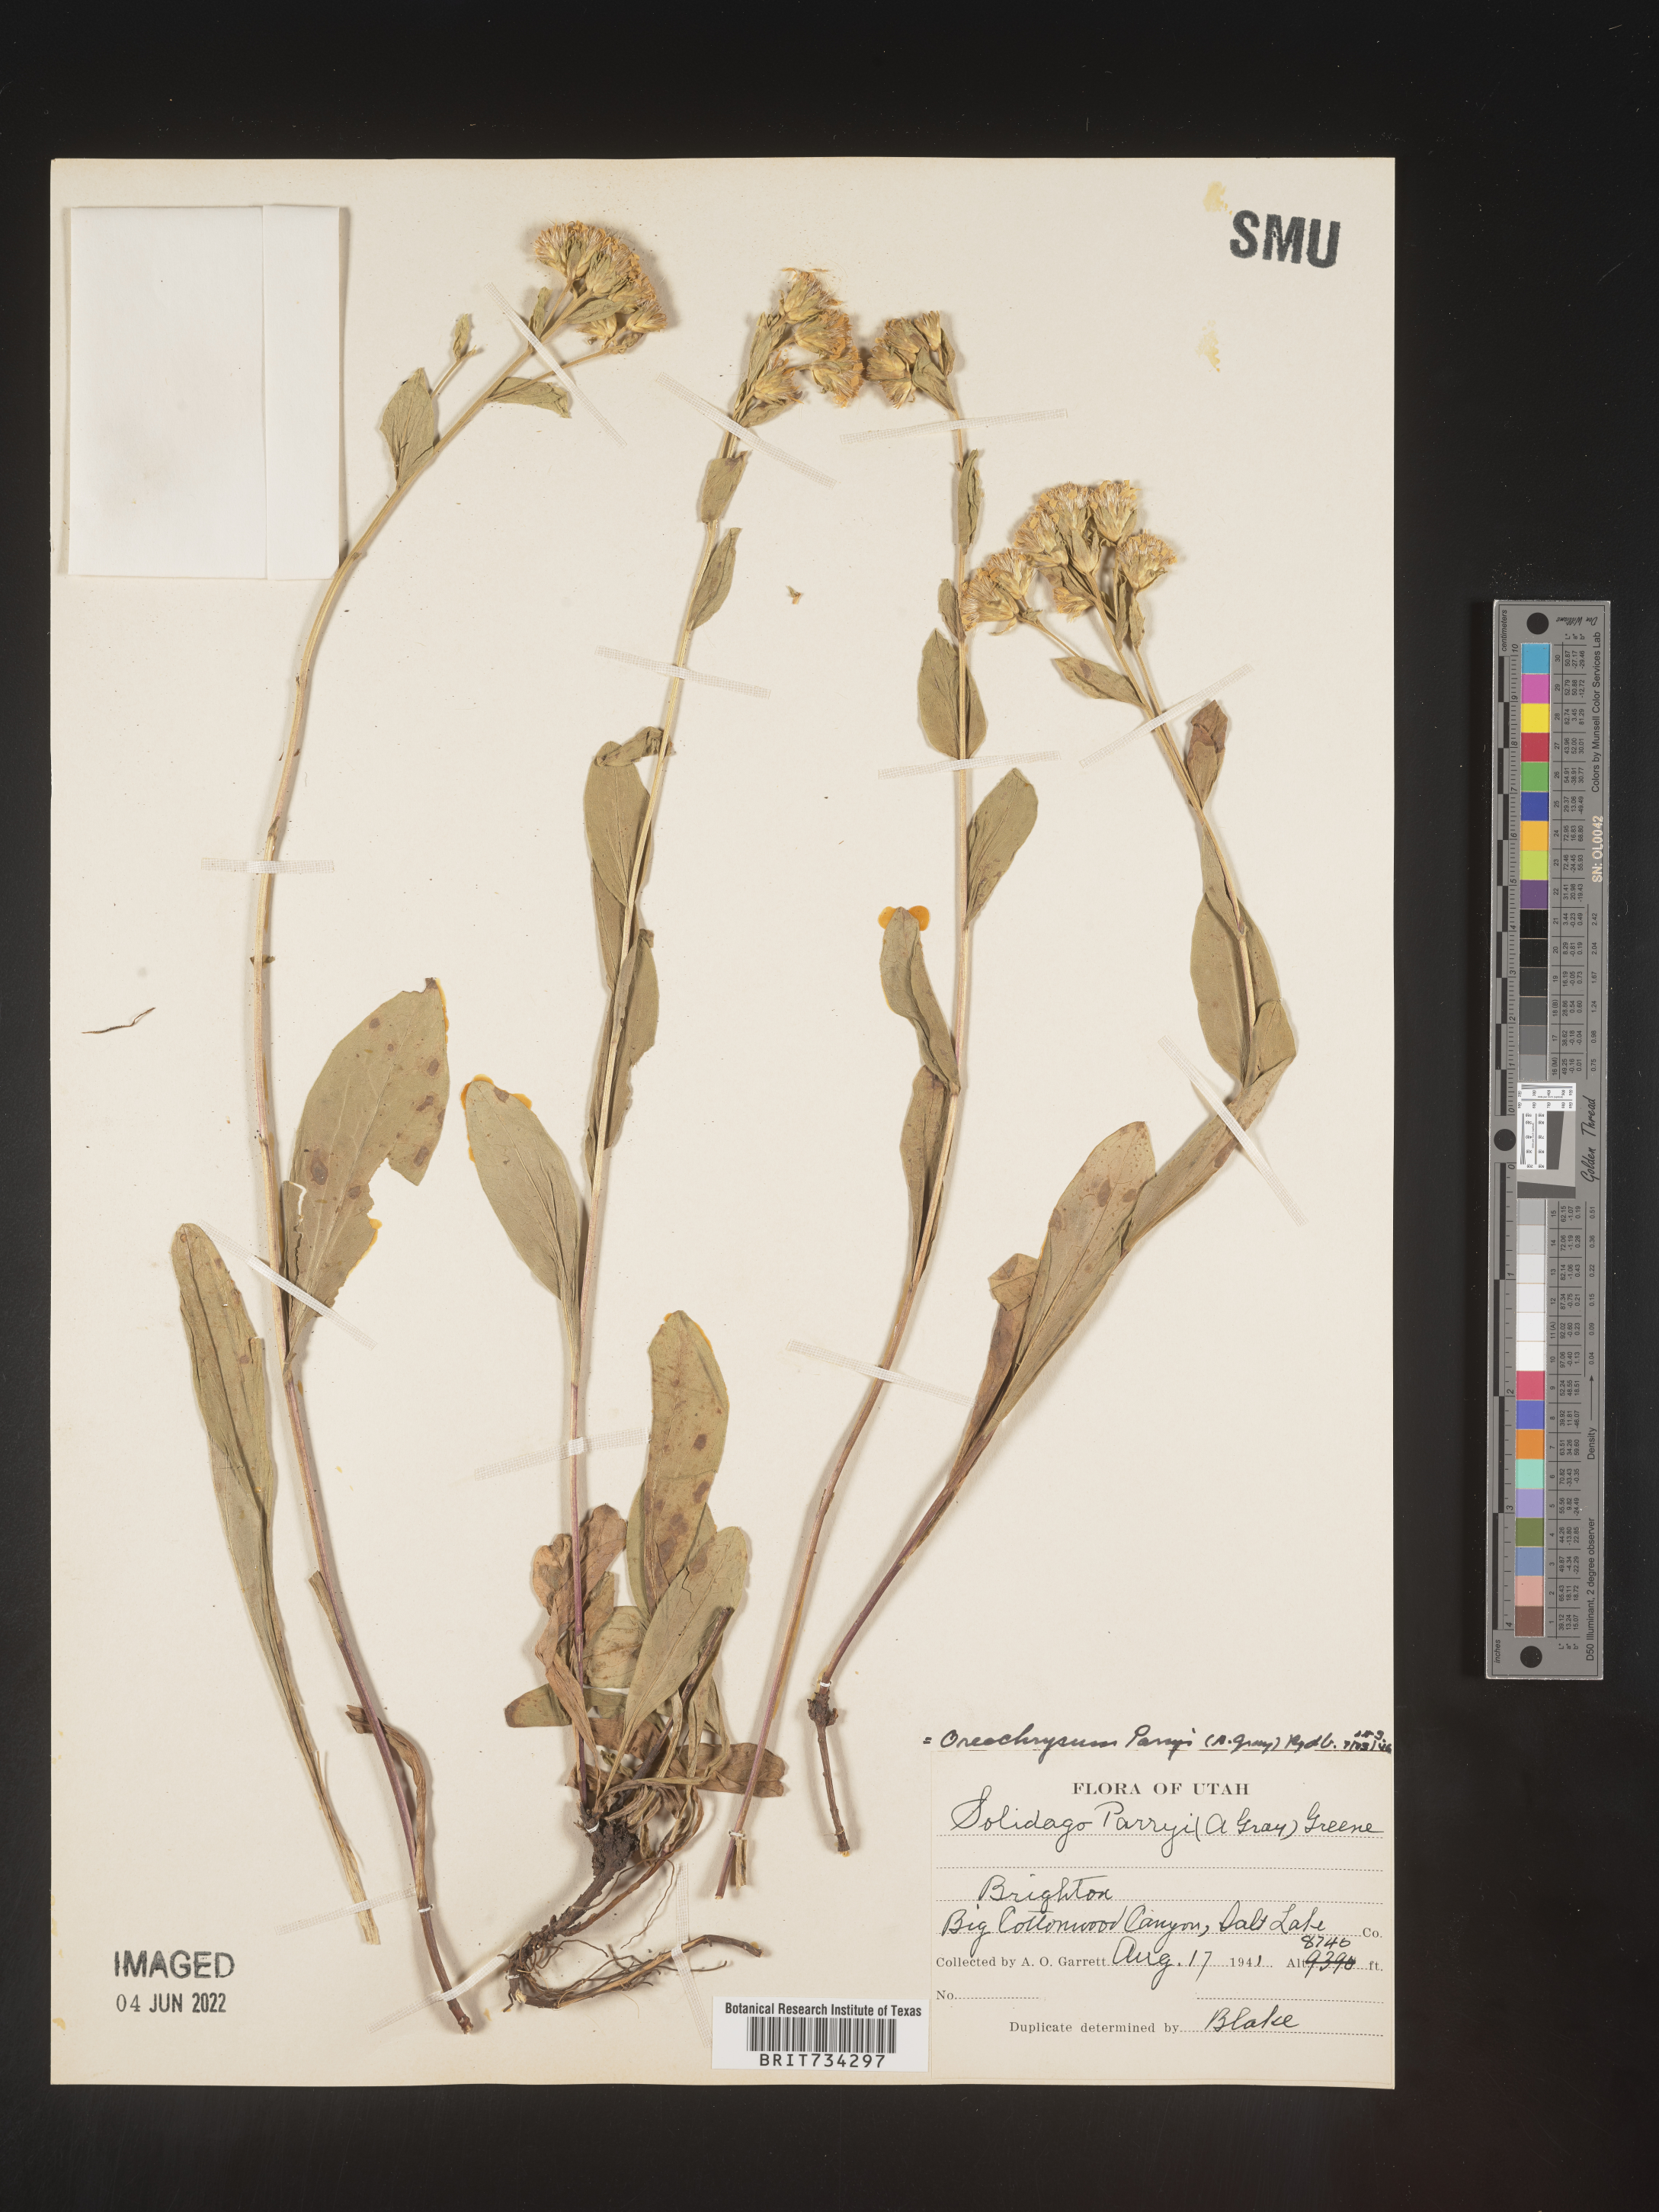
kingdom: Plantae
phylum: Tracheophyta
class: Magnoliopsida
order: Asterales
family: Asteraceae
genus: Oreochrysum
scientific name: Oreochrysum parryi
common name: Parry's goldenweed
